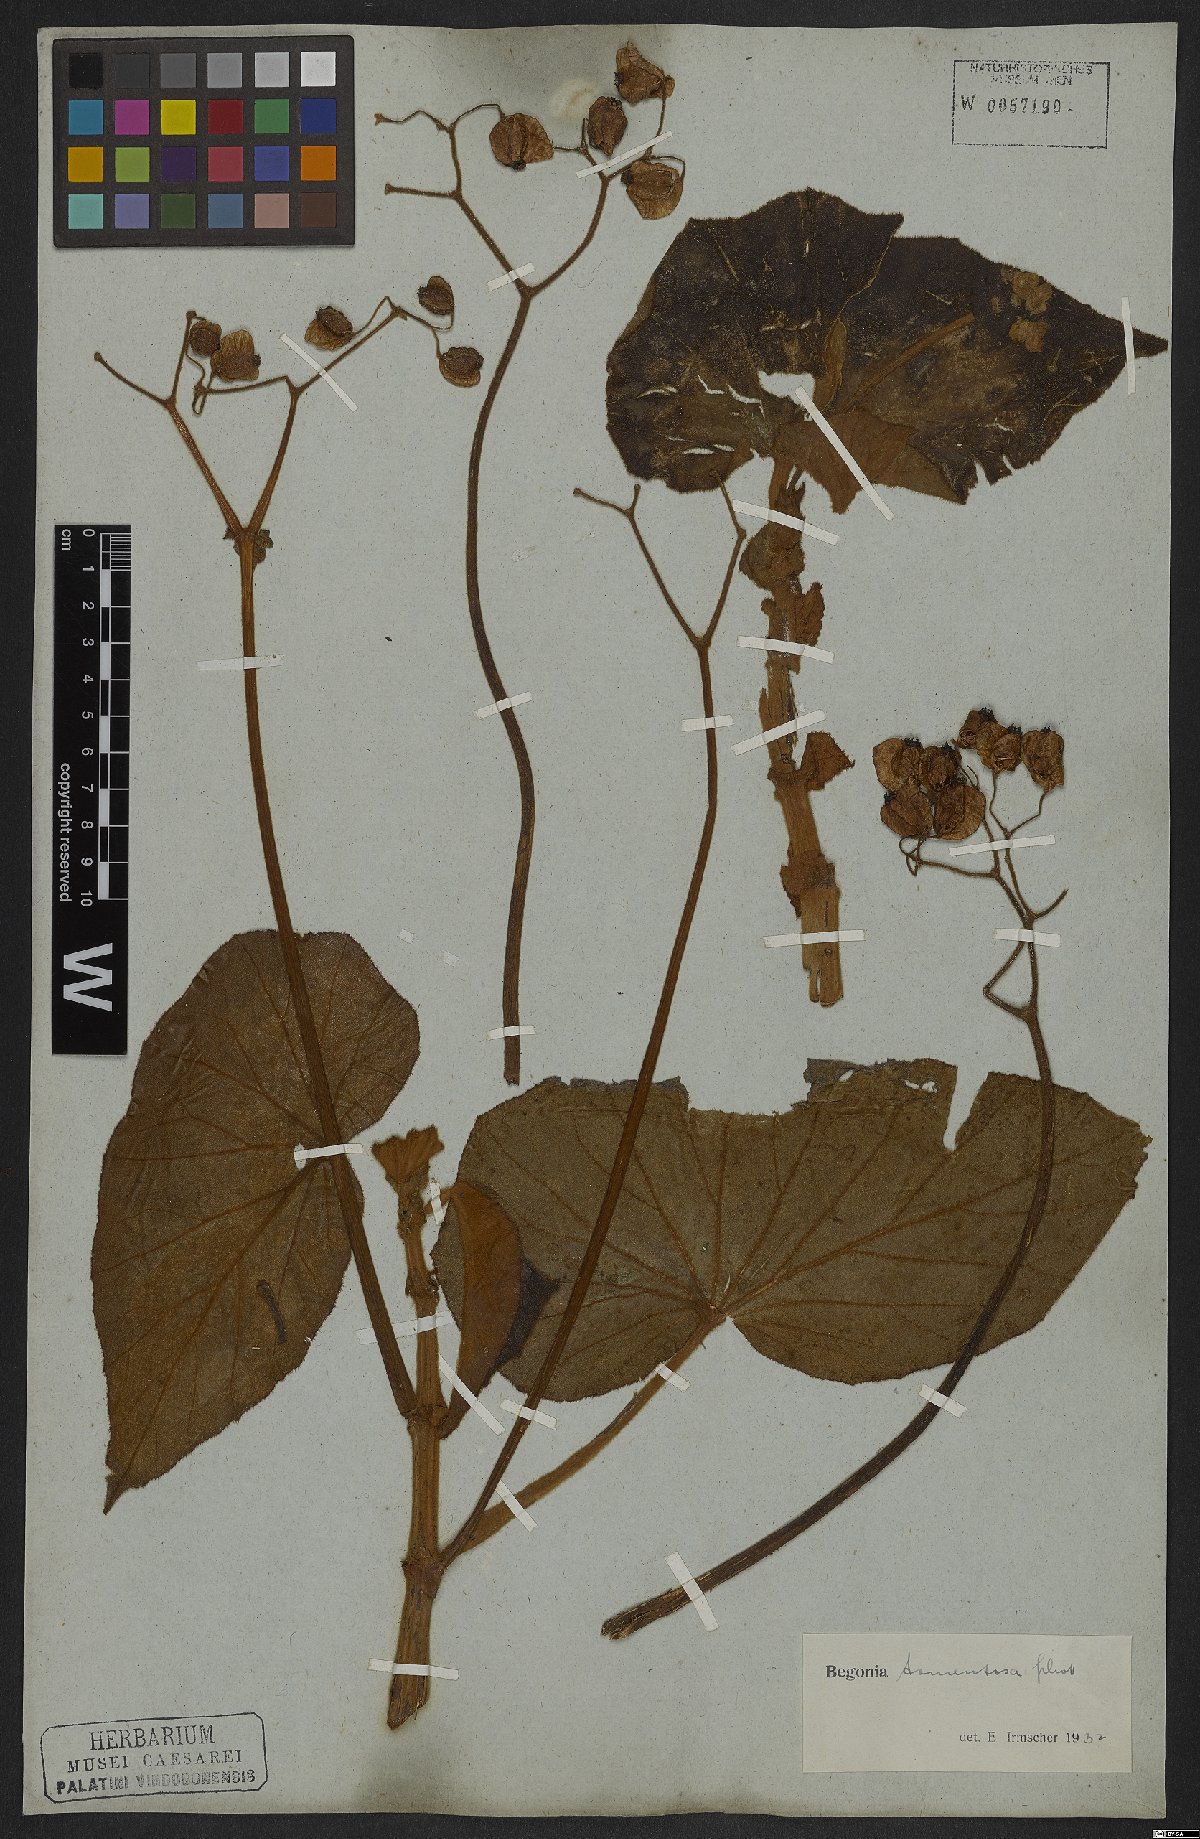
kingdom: Plantae
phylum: Tracheophyta
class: Magnoliopsida
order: Cucurbitales
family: Begoniaceae
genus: Begonia
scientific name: Begonia tomentosa
